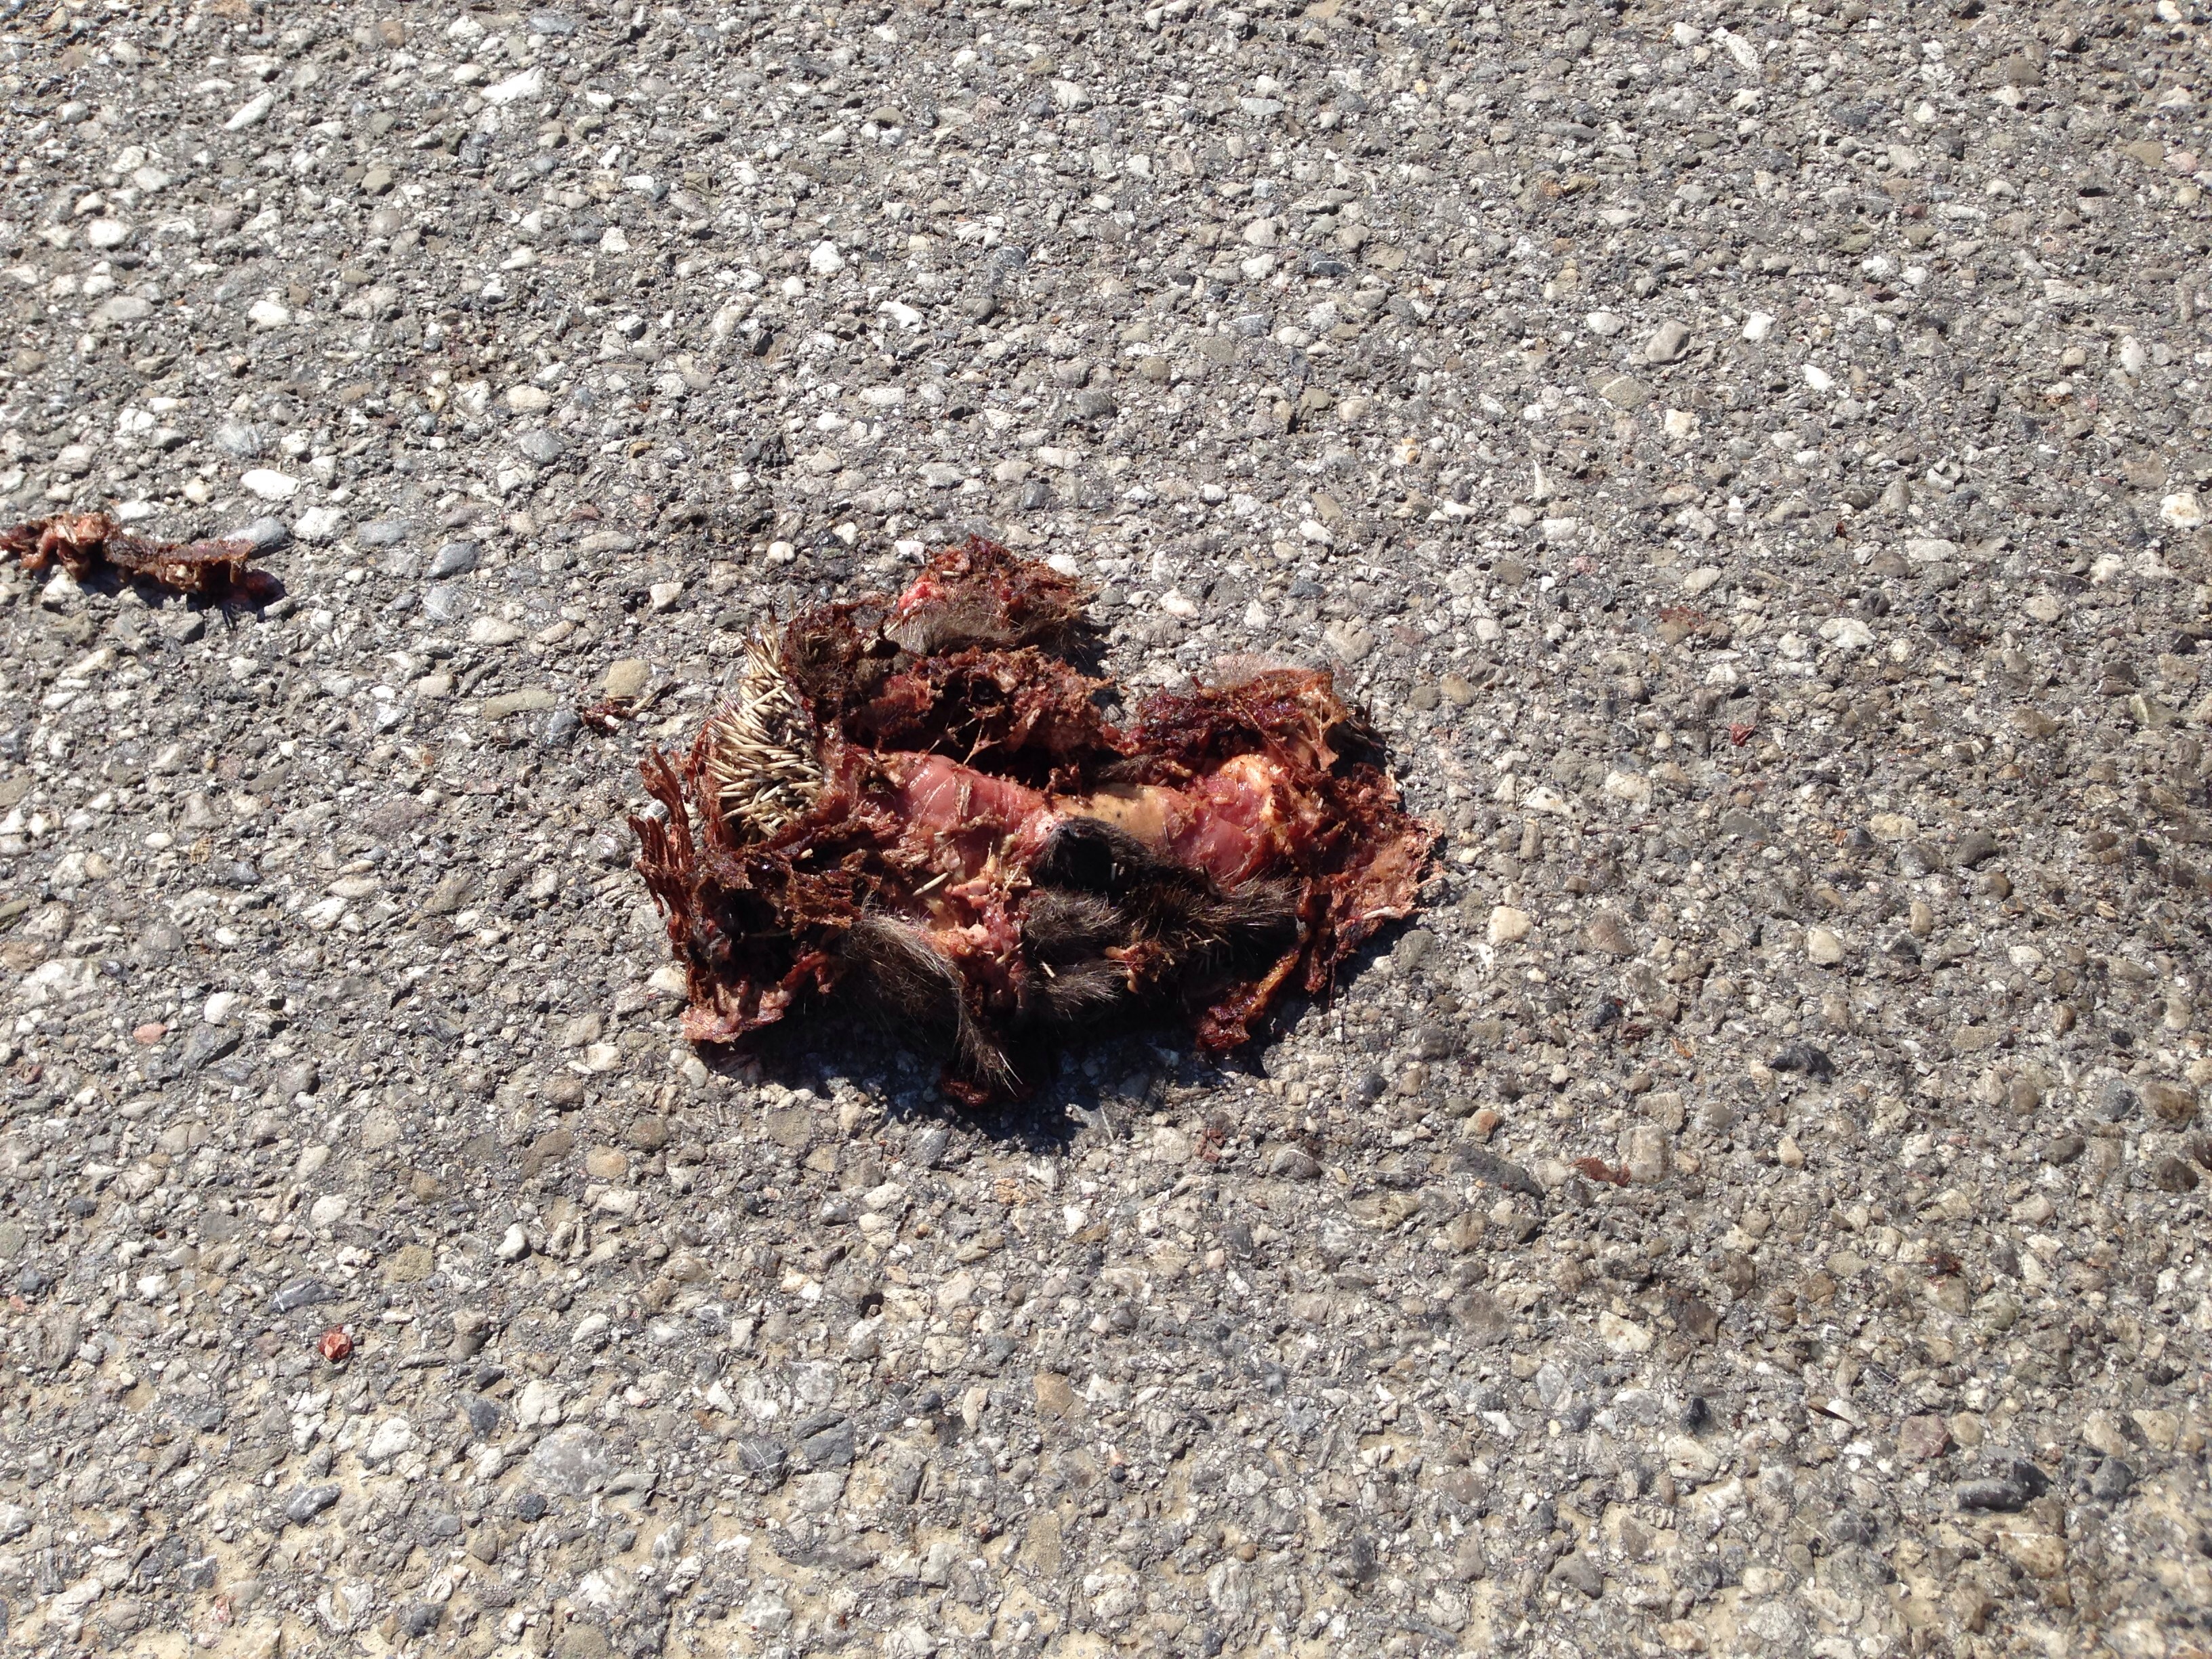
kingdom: Animalia
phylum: Chordata
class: Mammalia
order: Erinaceomorpha
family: Erinaceidae
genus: Erinaceus
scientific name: Erinaceus
